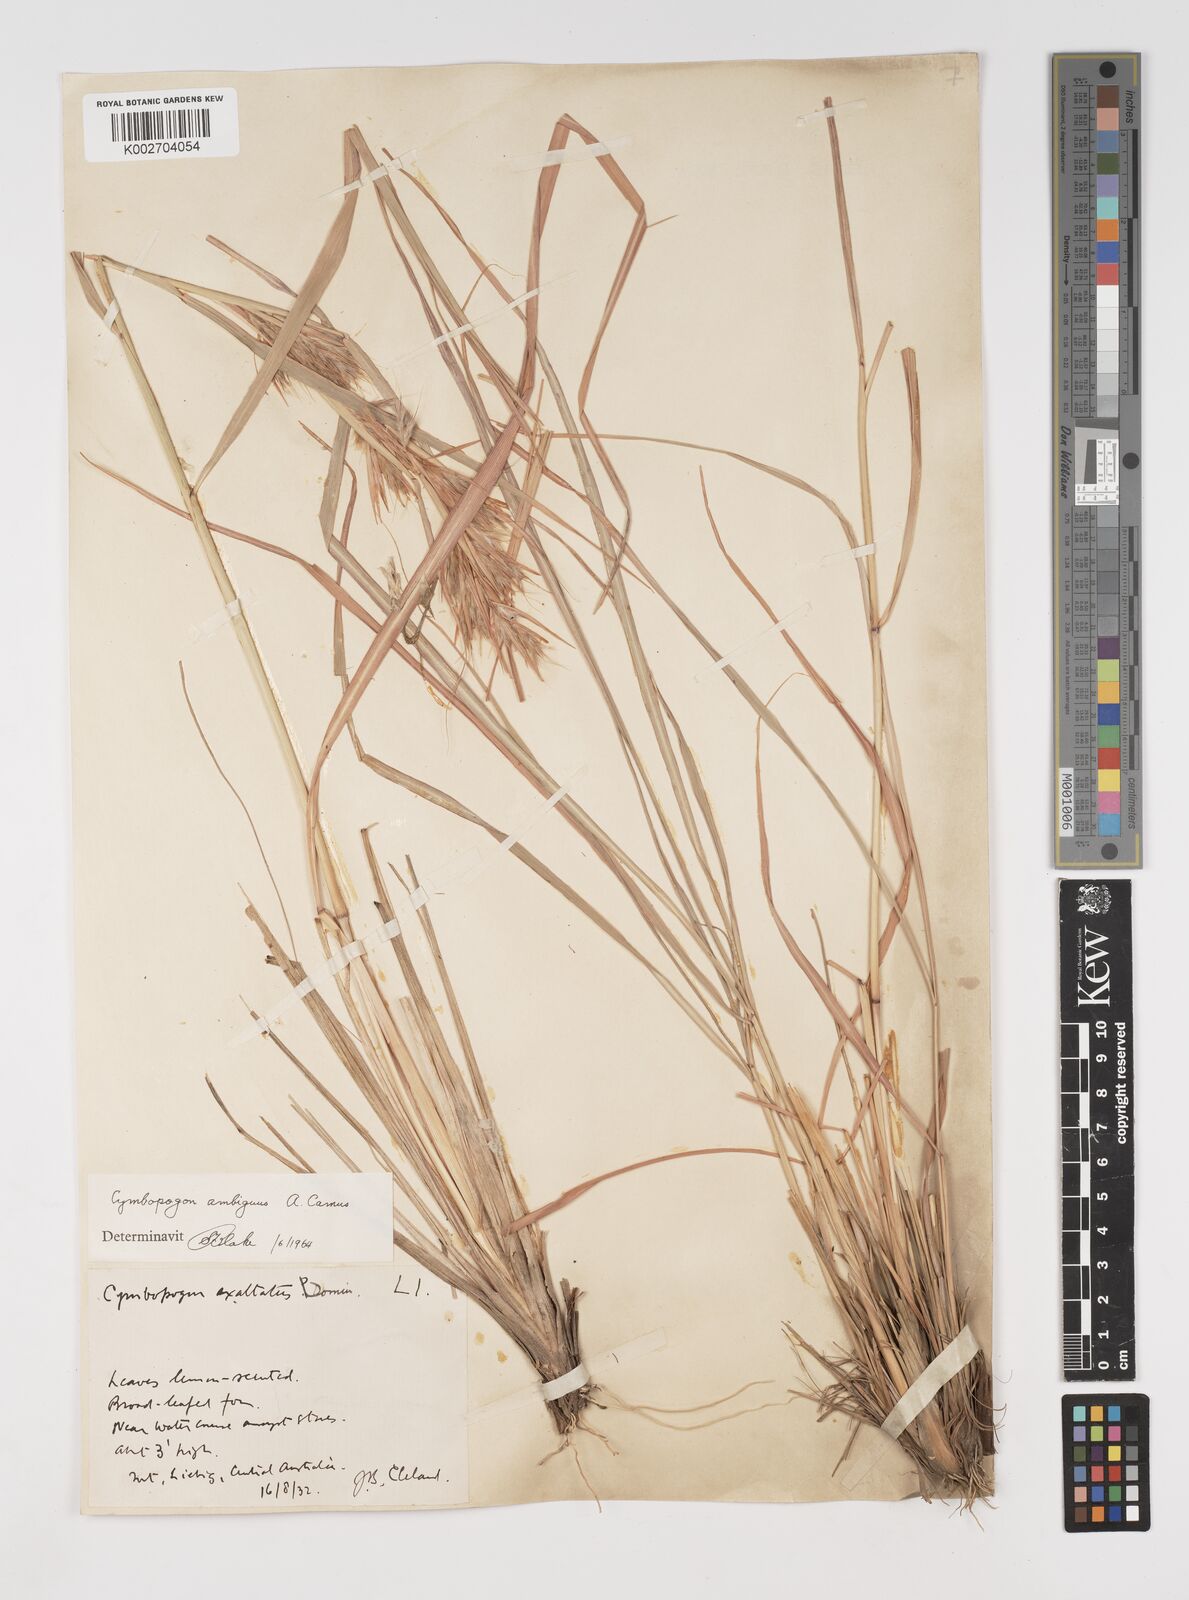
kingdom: Plantae
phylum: Tracheophyta
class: Liliopsida
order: Poales
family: Poaceae
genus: Cymbopogon
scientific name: Cymbopogon ambiguus
